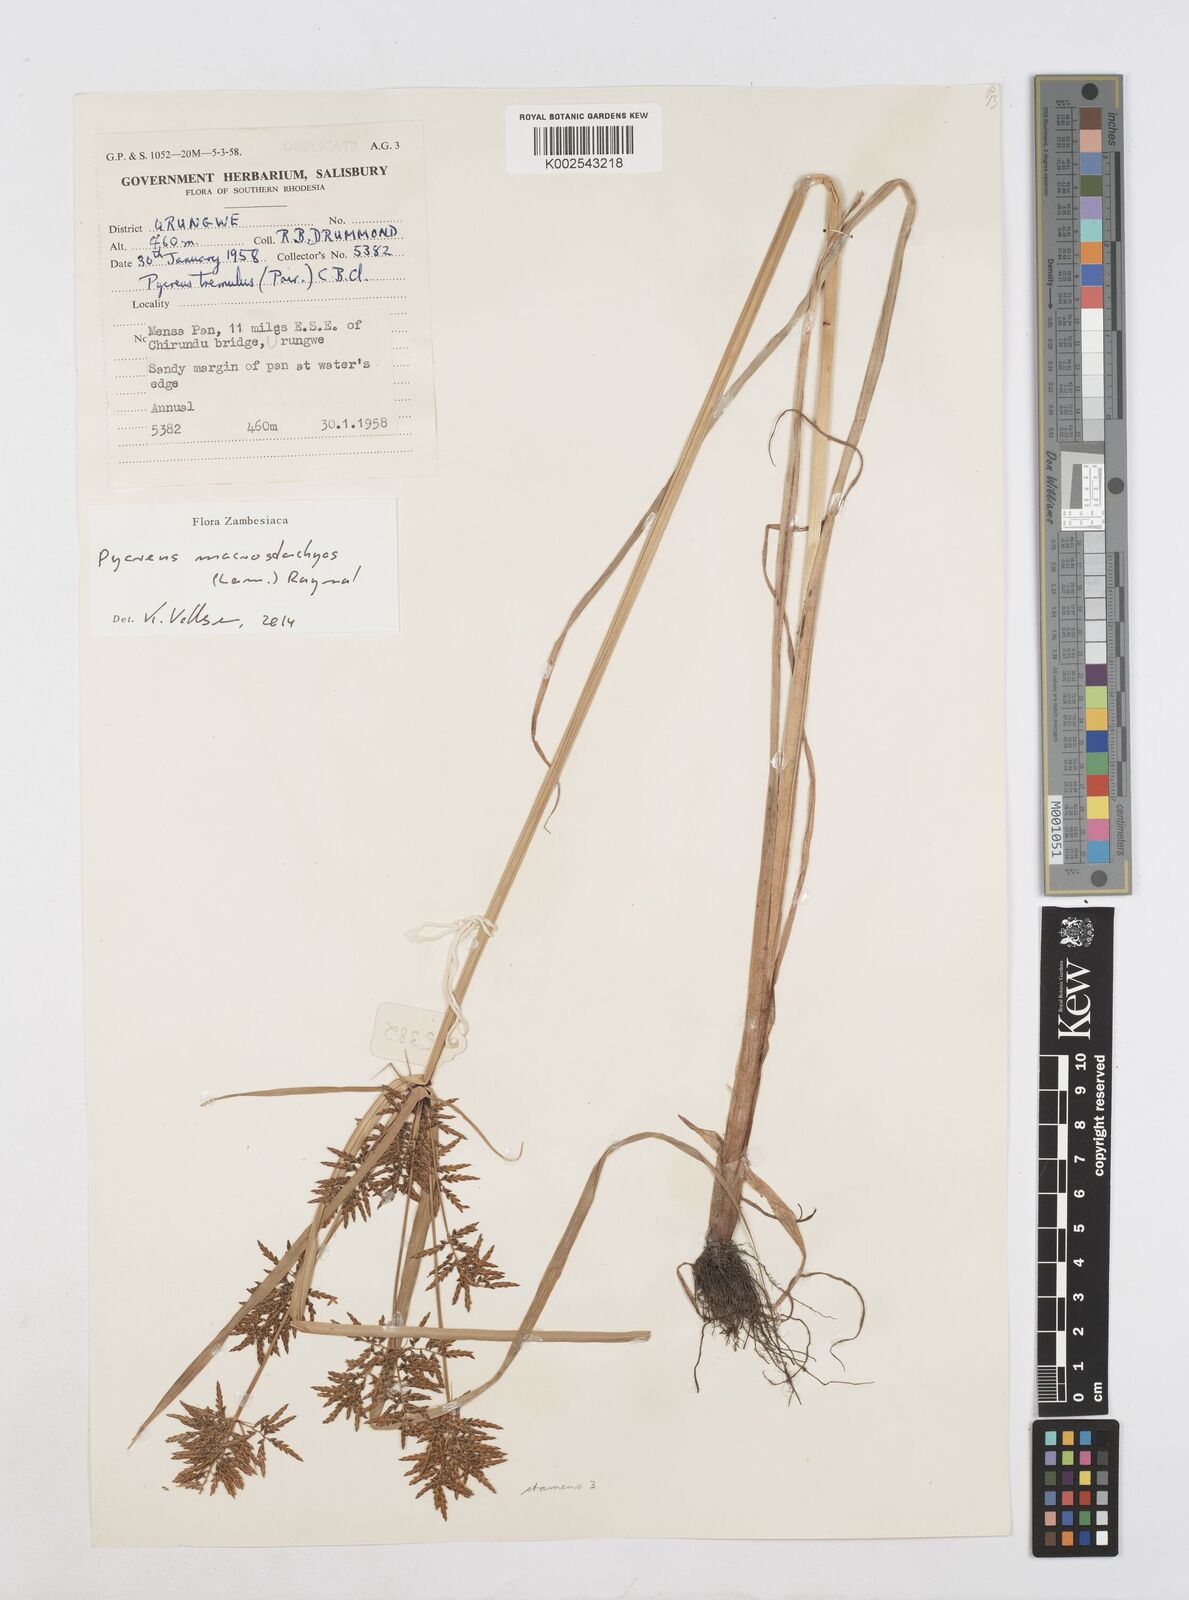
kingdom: Plantae
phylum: Tracheophyta
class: Liliopsida
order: Poales
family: Cyperaceae
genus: Cyperus
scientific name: Cyperus macrostachyos
